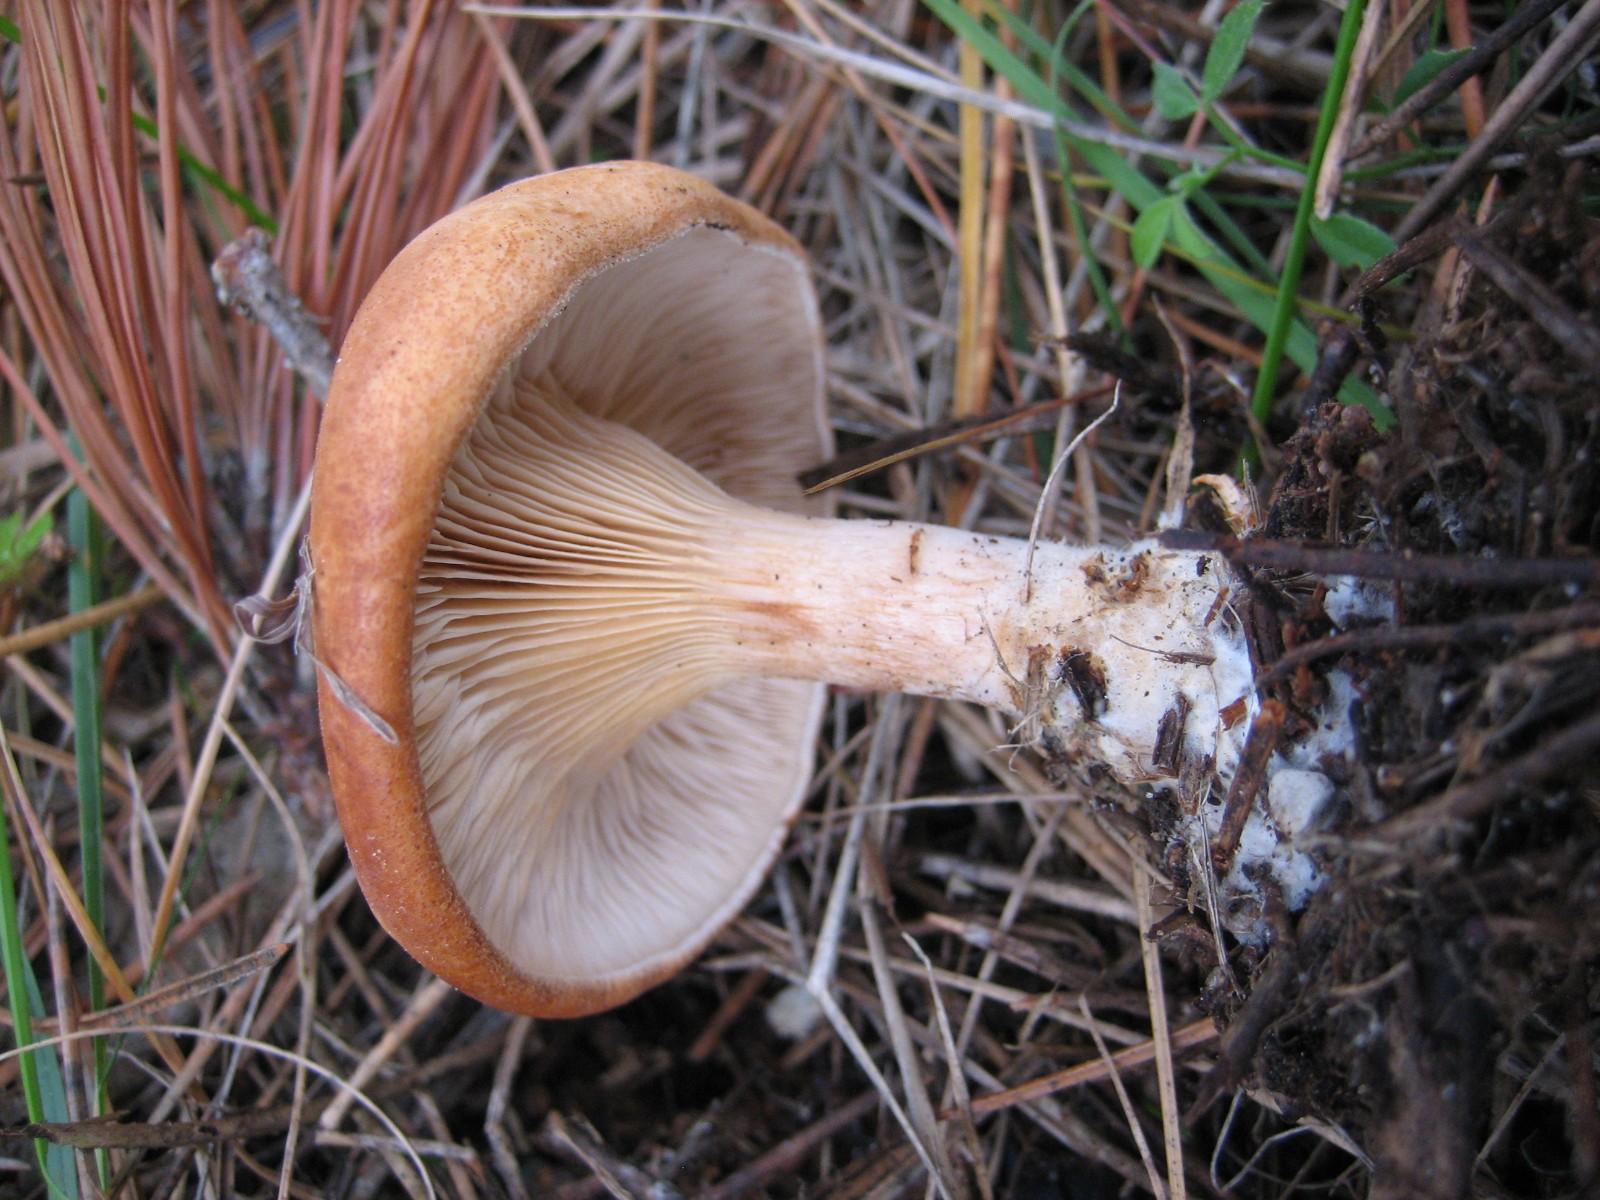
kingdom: Fungi
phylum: Basidiomycota
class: Agaricomycetes
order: Agaricales
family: Tricholomataceae
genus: Paralepista
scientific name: Paralepista flaccida
